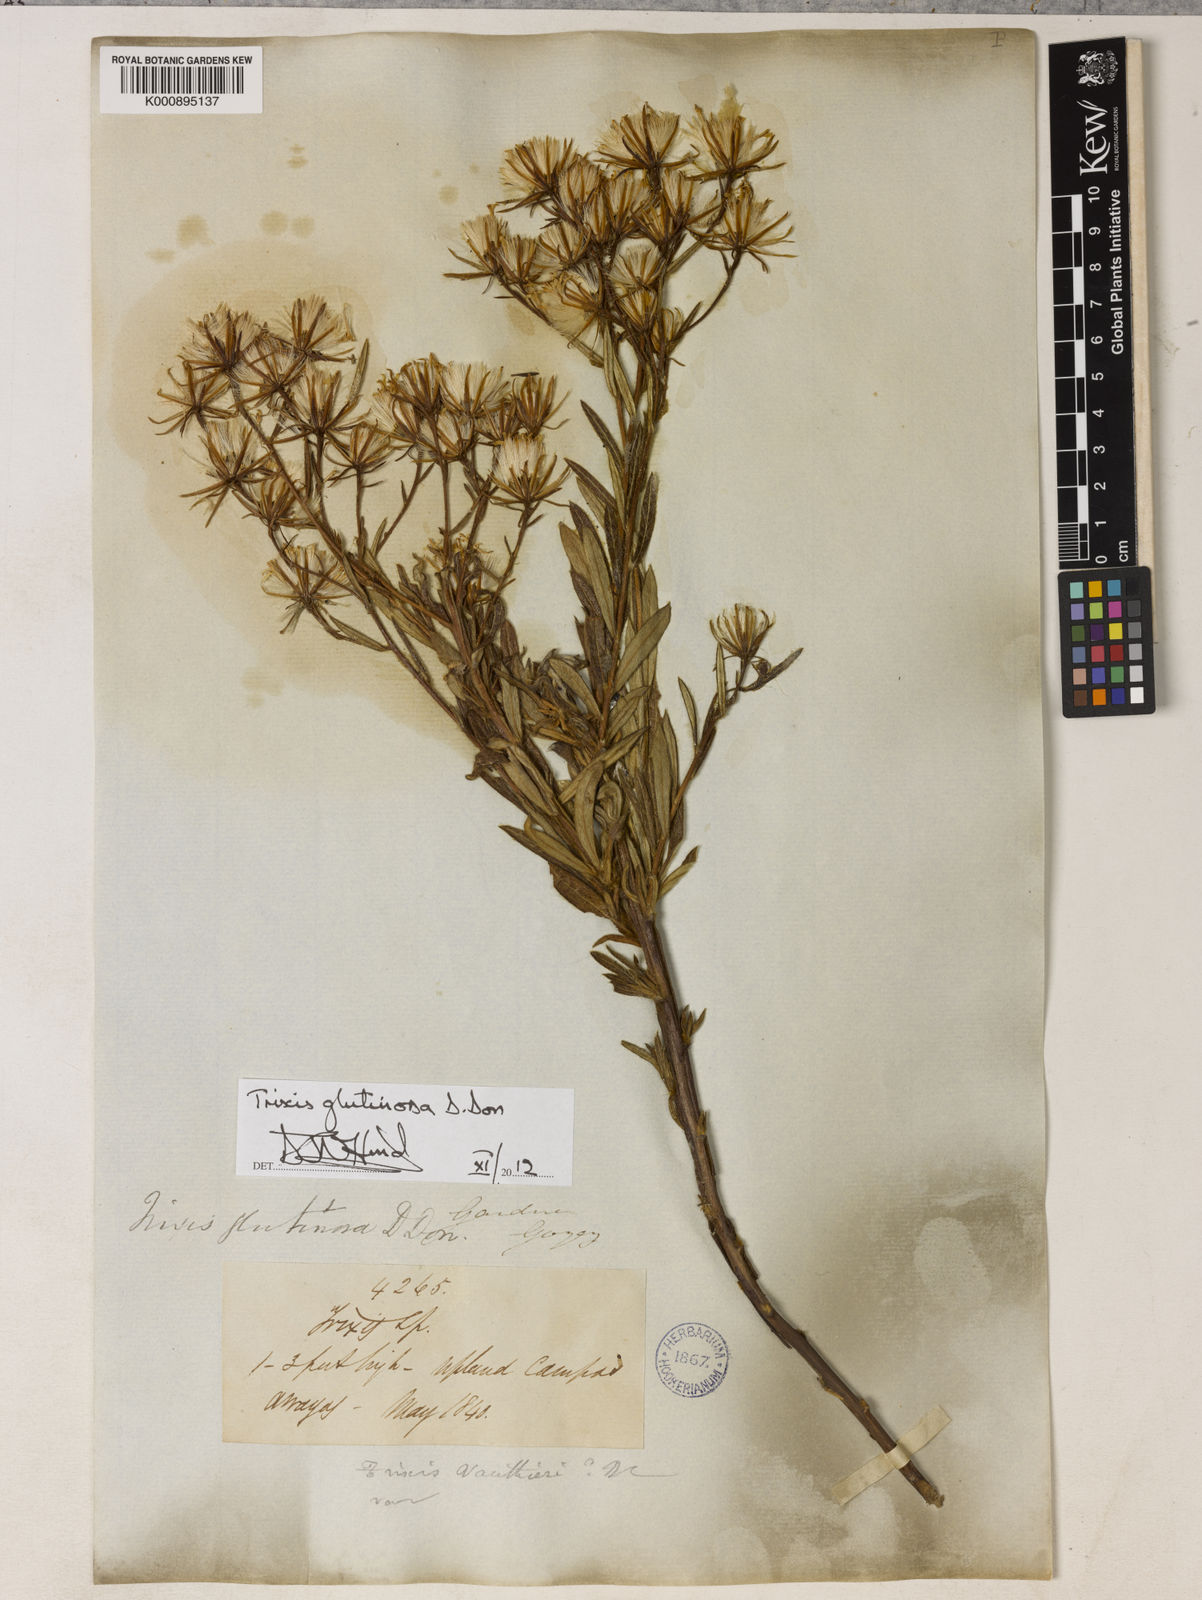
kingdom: Plantae
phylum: Tracheophyta
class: Magnoliopsida
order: Asterales
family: Asteraceae
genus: Trixis
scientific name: Trixis glutinosa
